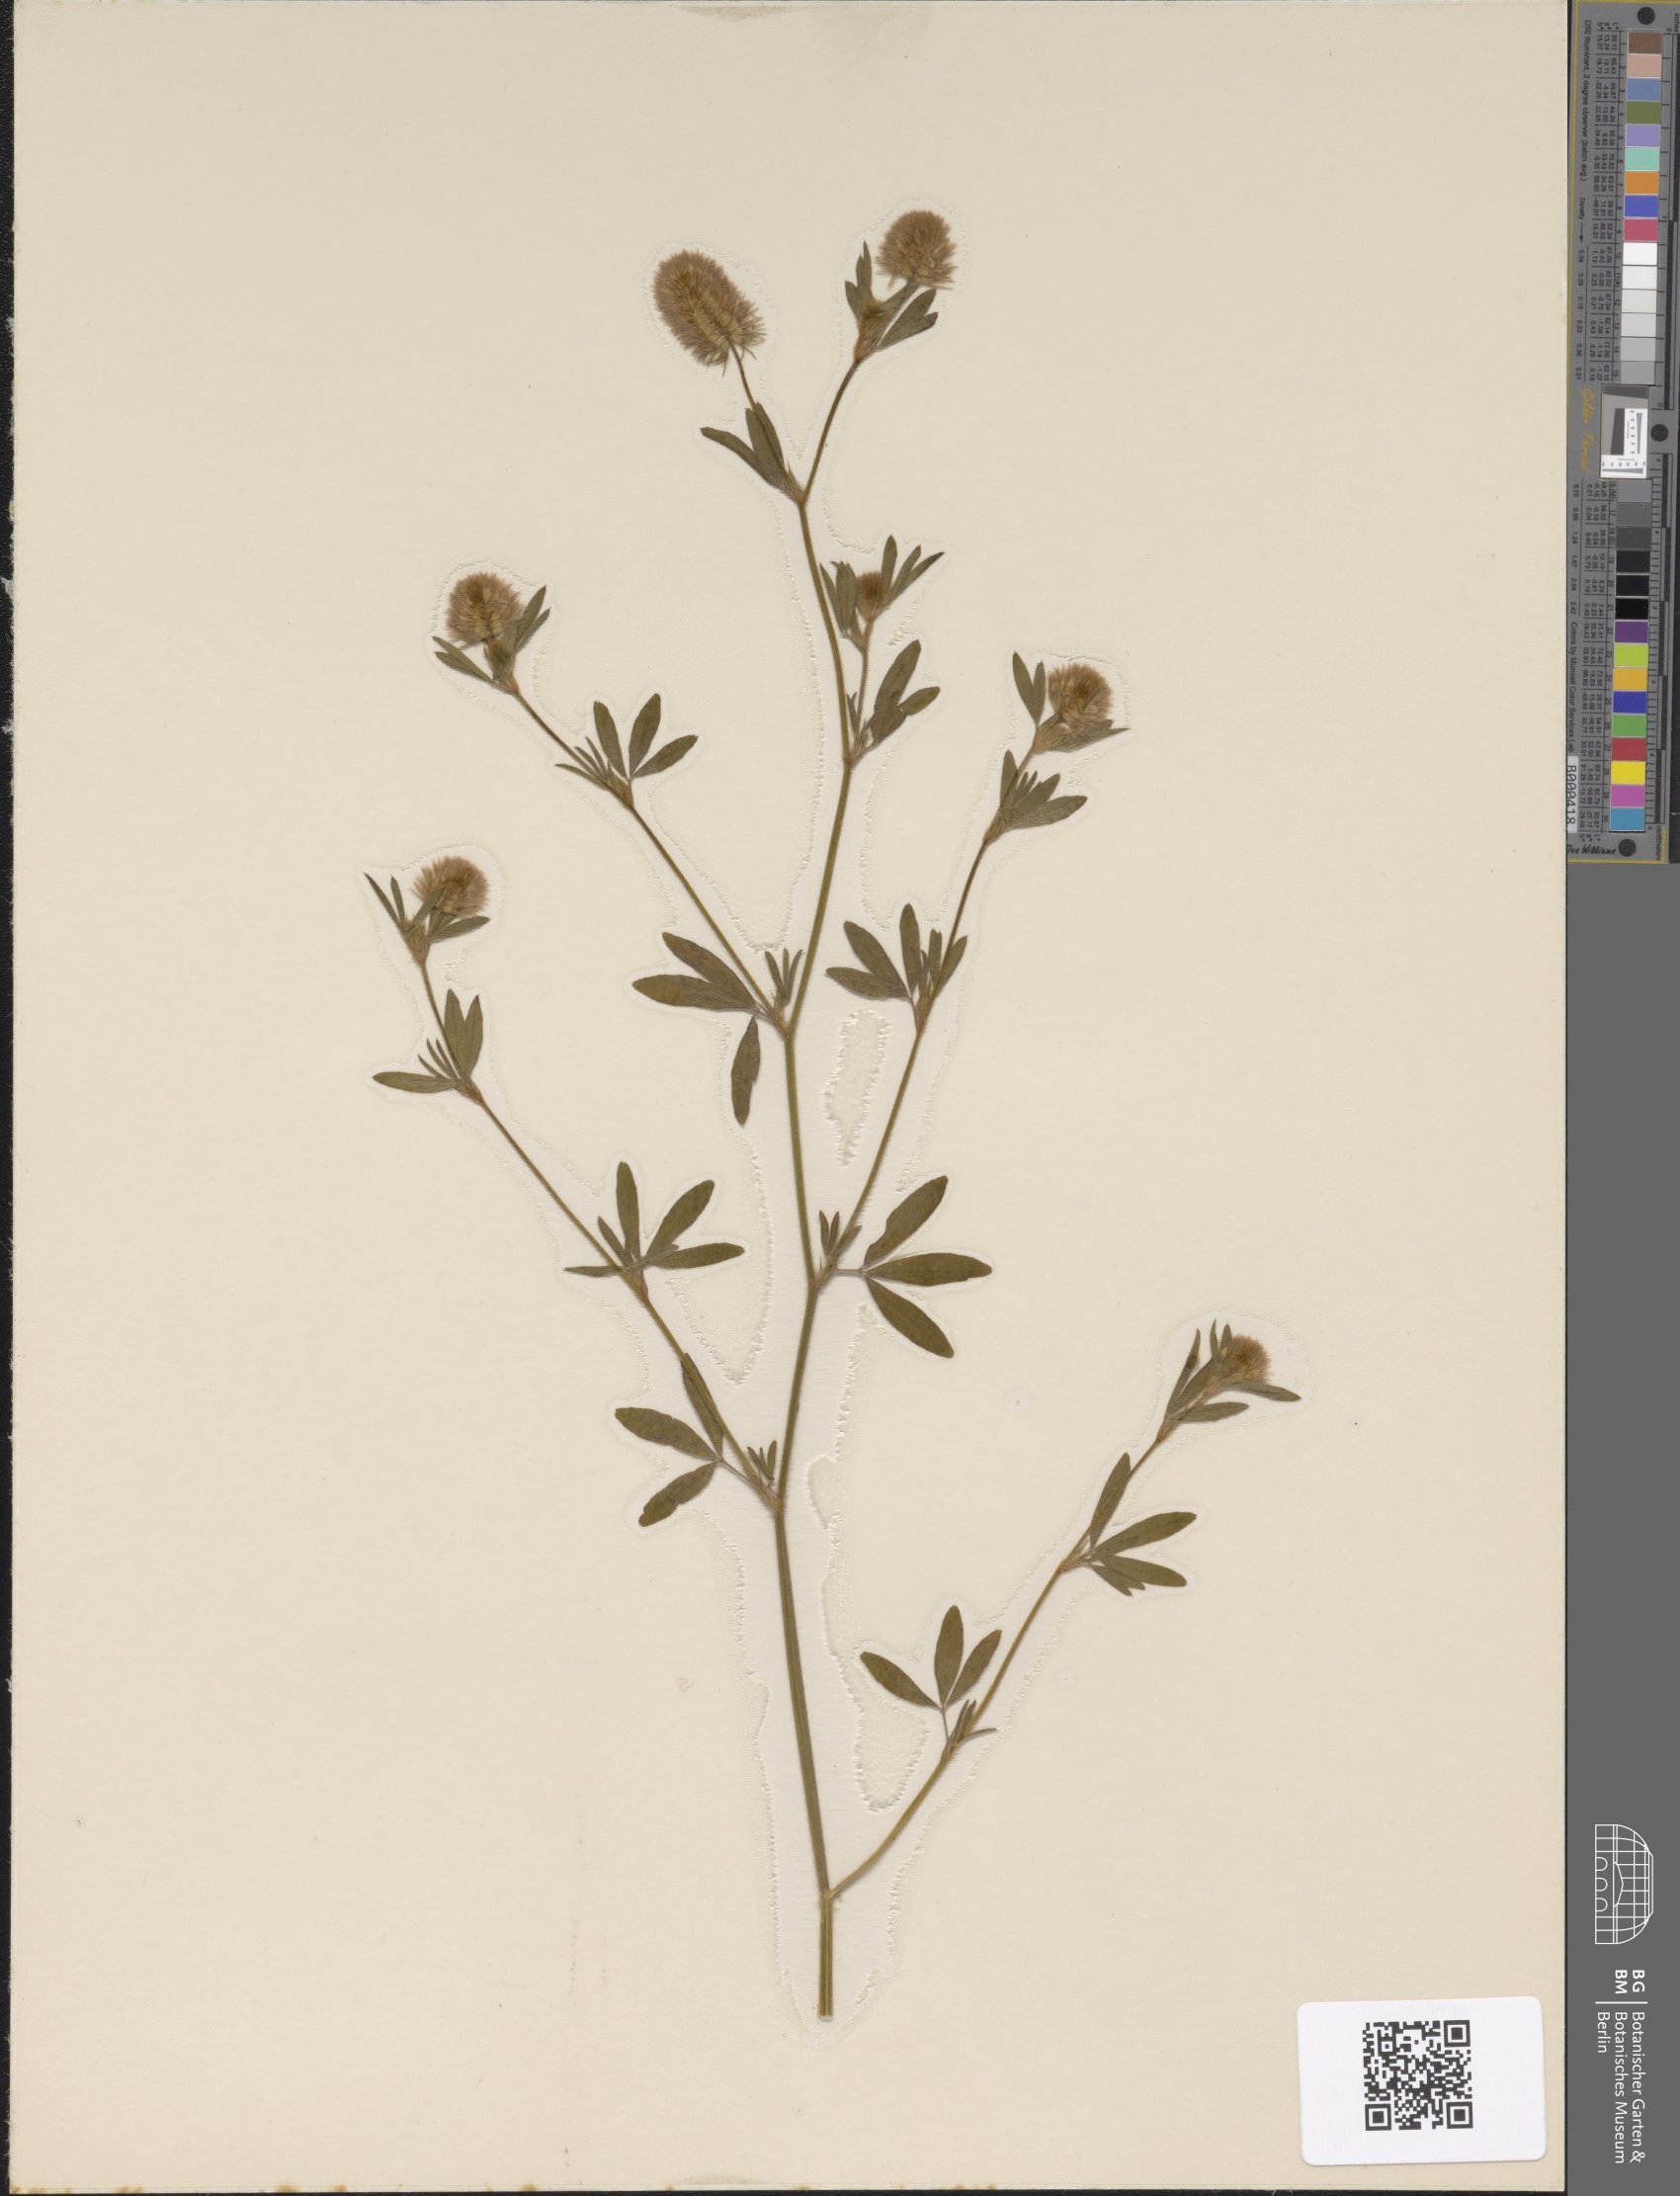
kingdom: Plantae
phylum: Tracheophyta
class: Magnoliopsida
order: Fabales
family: Fabaceae
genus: Trifolium
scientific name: Trifolium arvense
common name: Hare's-foot clover
